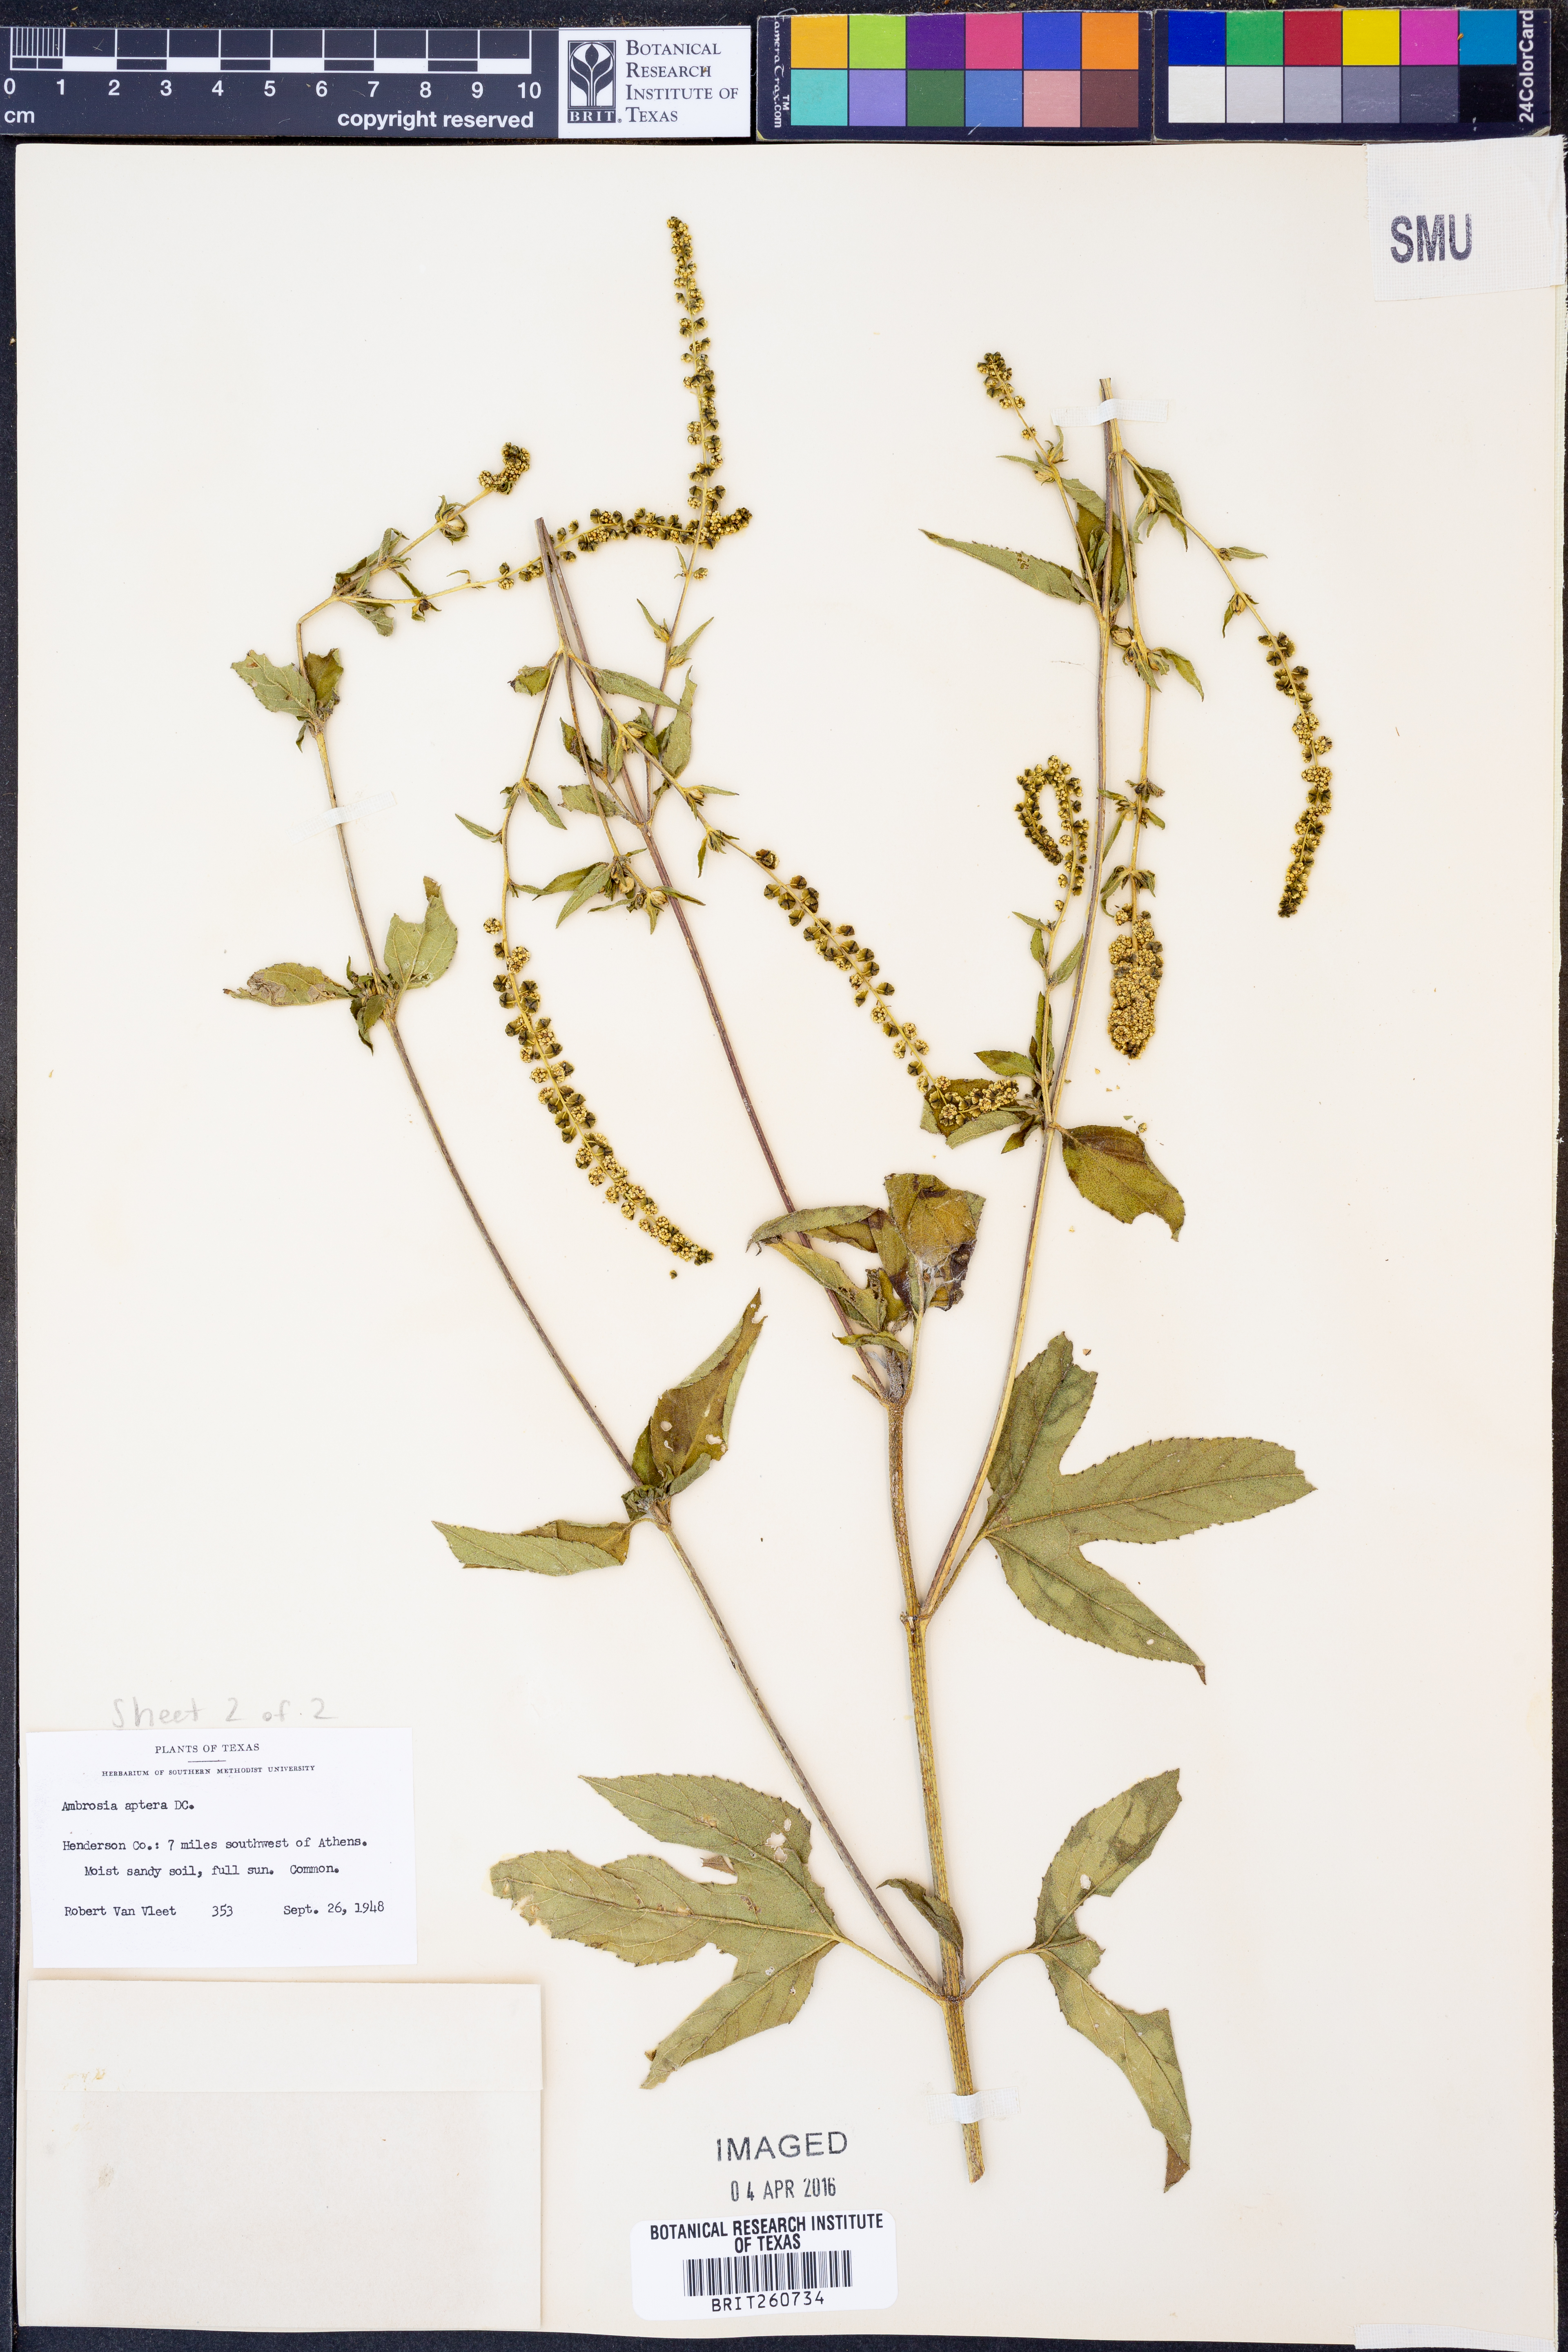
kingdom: Plantae
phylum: Tracheophyta
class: Magnoliopsida
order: Asterales
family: Asteraceae
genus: Ambrosia
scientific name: Ambrosia trifida
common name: Giant ragweed
